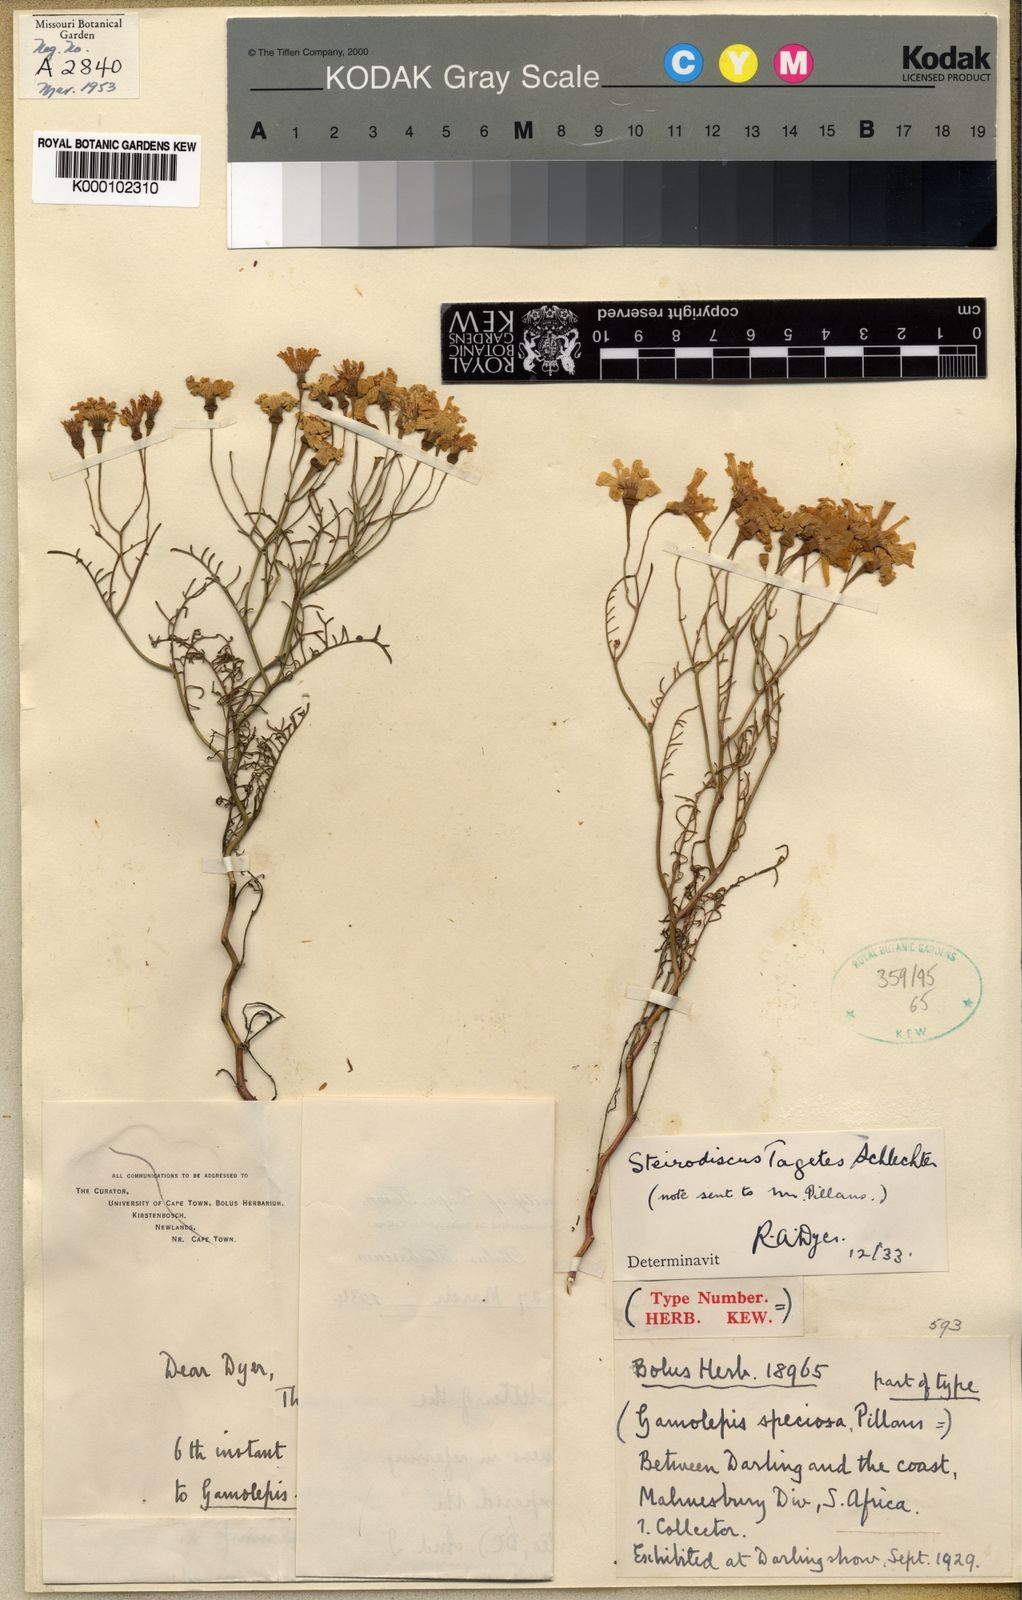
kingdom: Plantae
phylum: Tracheophyta
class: Magnoliopsida
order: Asterales
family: Asteraceae
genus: Steirodiscus
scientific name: Steirodiscus tagetes
